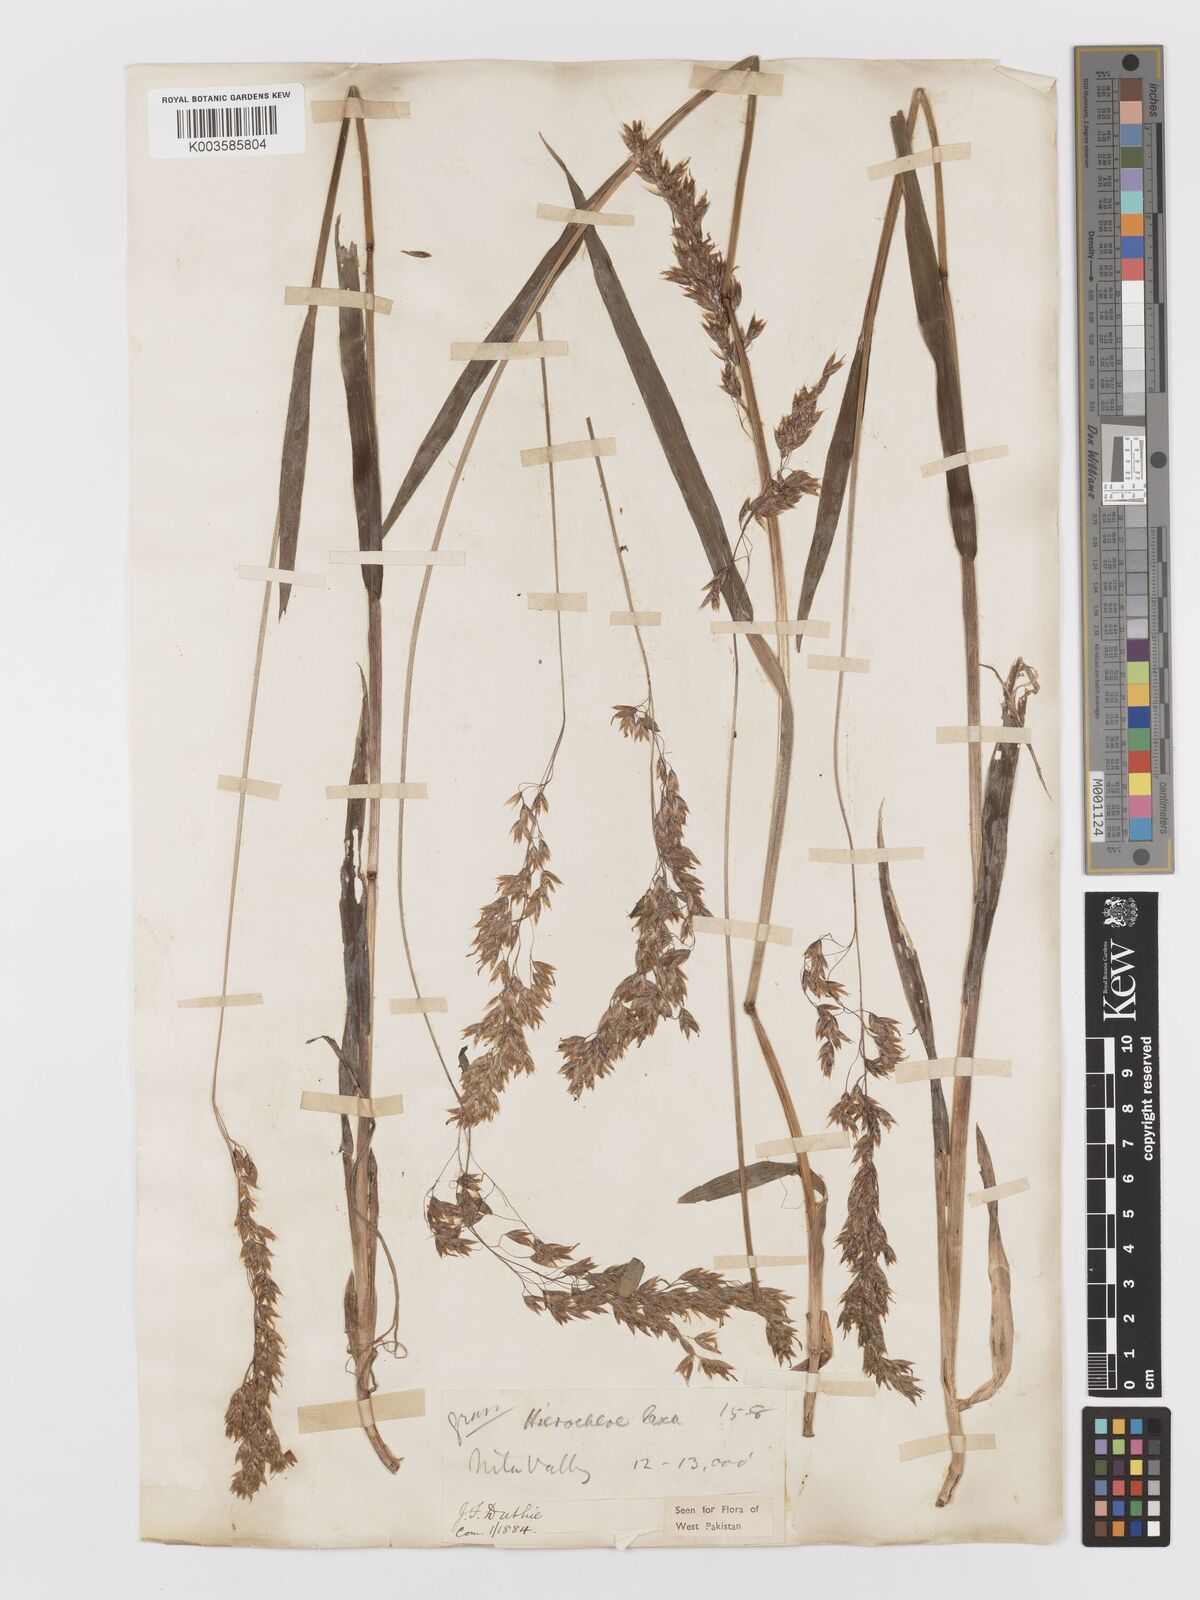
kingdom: Plantae
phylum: Tracheophyta
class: Liliopsida
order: Poales
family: Poaceae
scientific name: Poaceae
